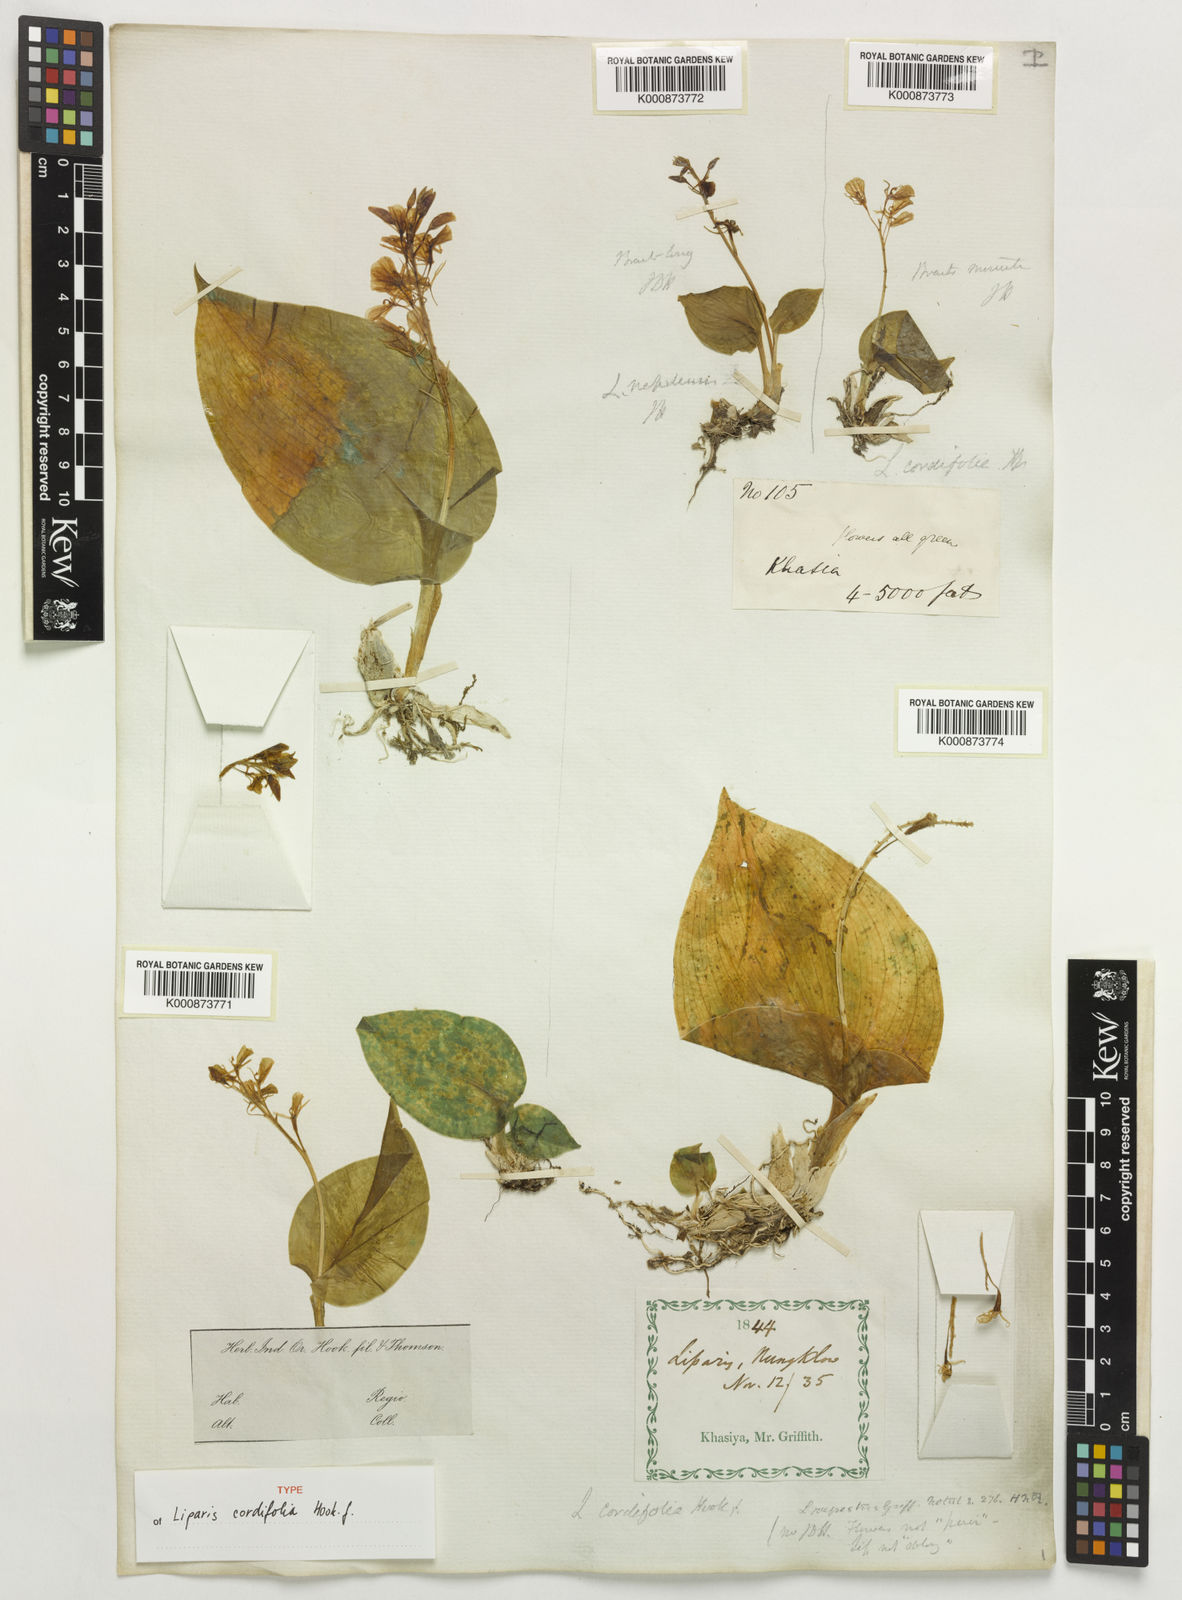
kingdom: Plantae
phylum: Tracheophyta
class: Liliopsida
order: Asparagales
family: Orchidaceae
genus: Liparis
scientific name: Liparis cordifolia
